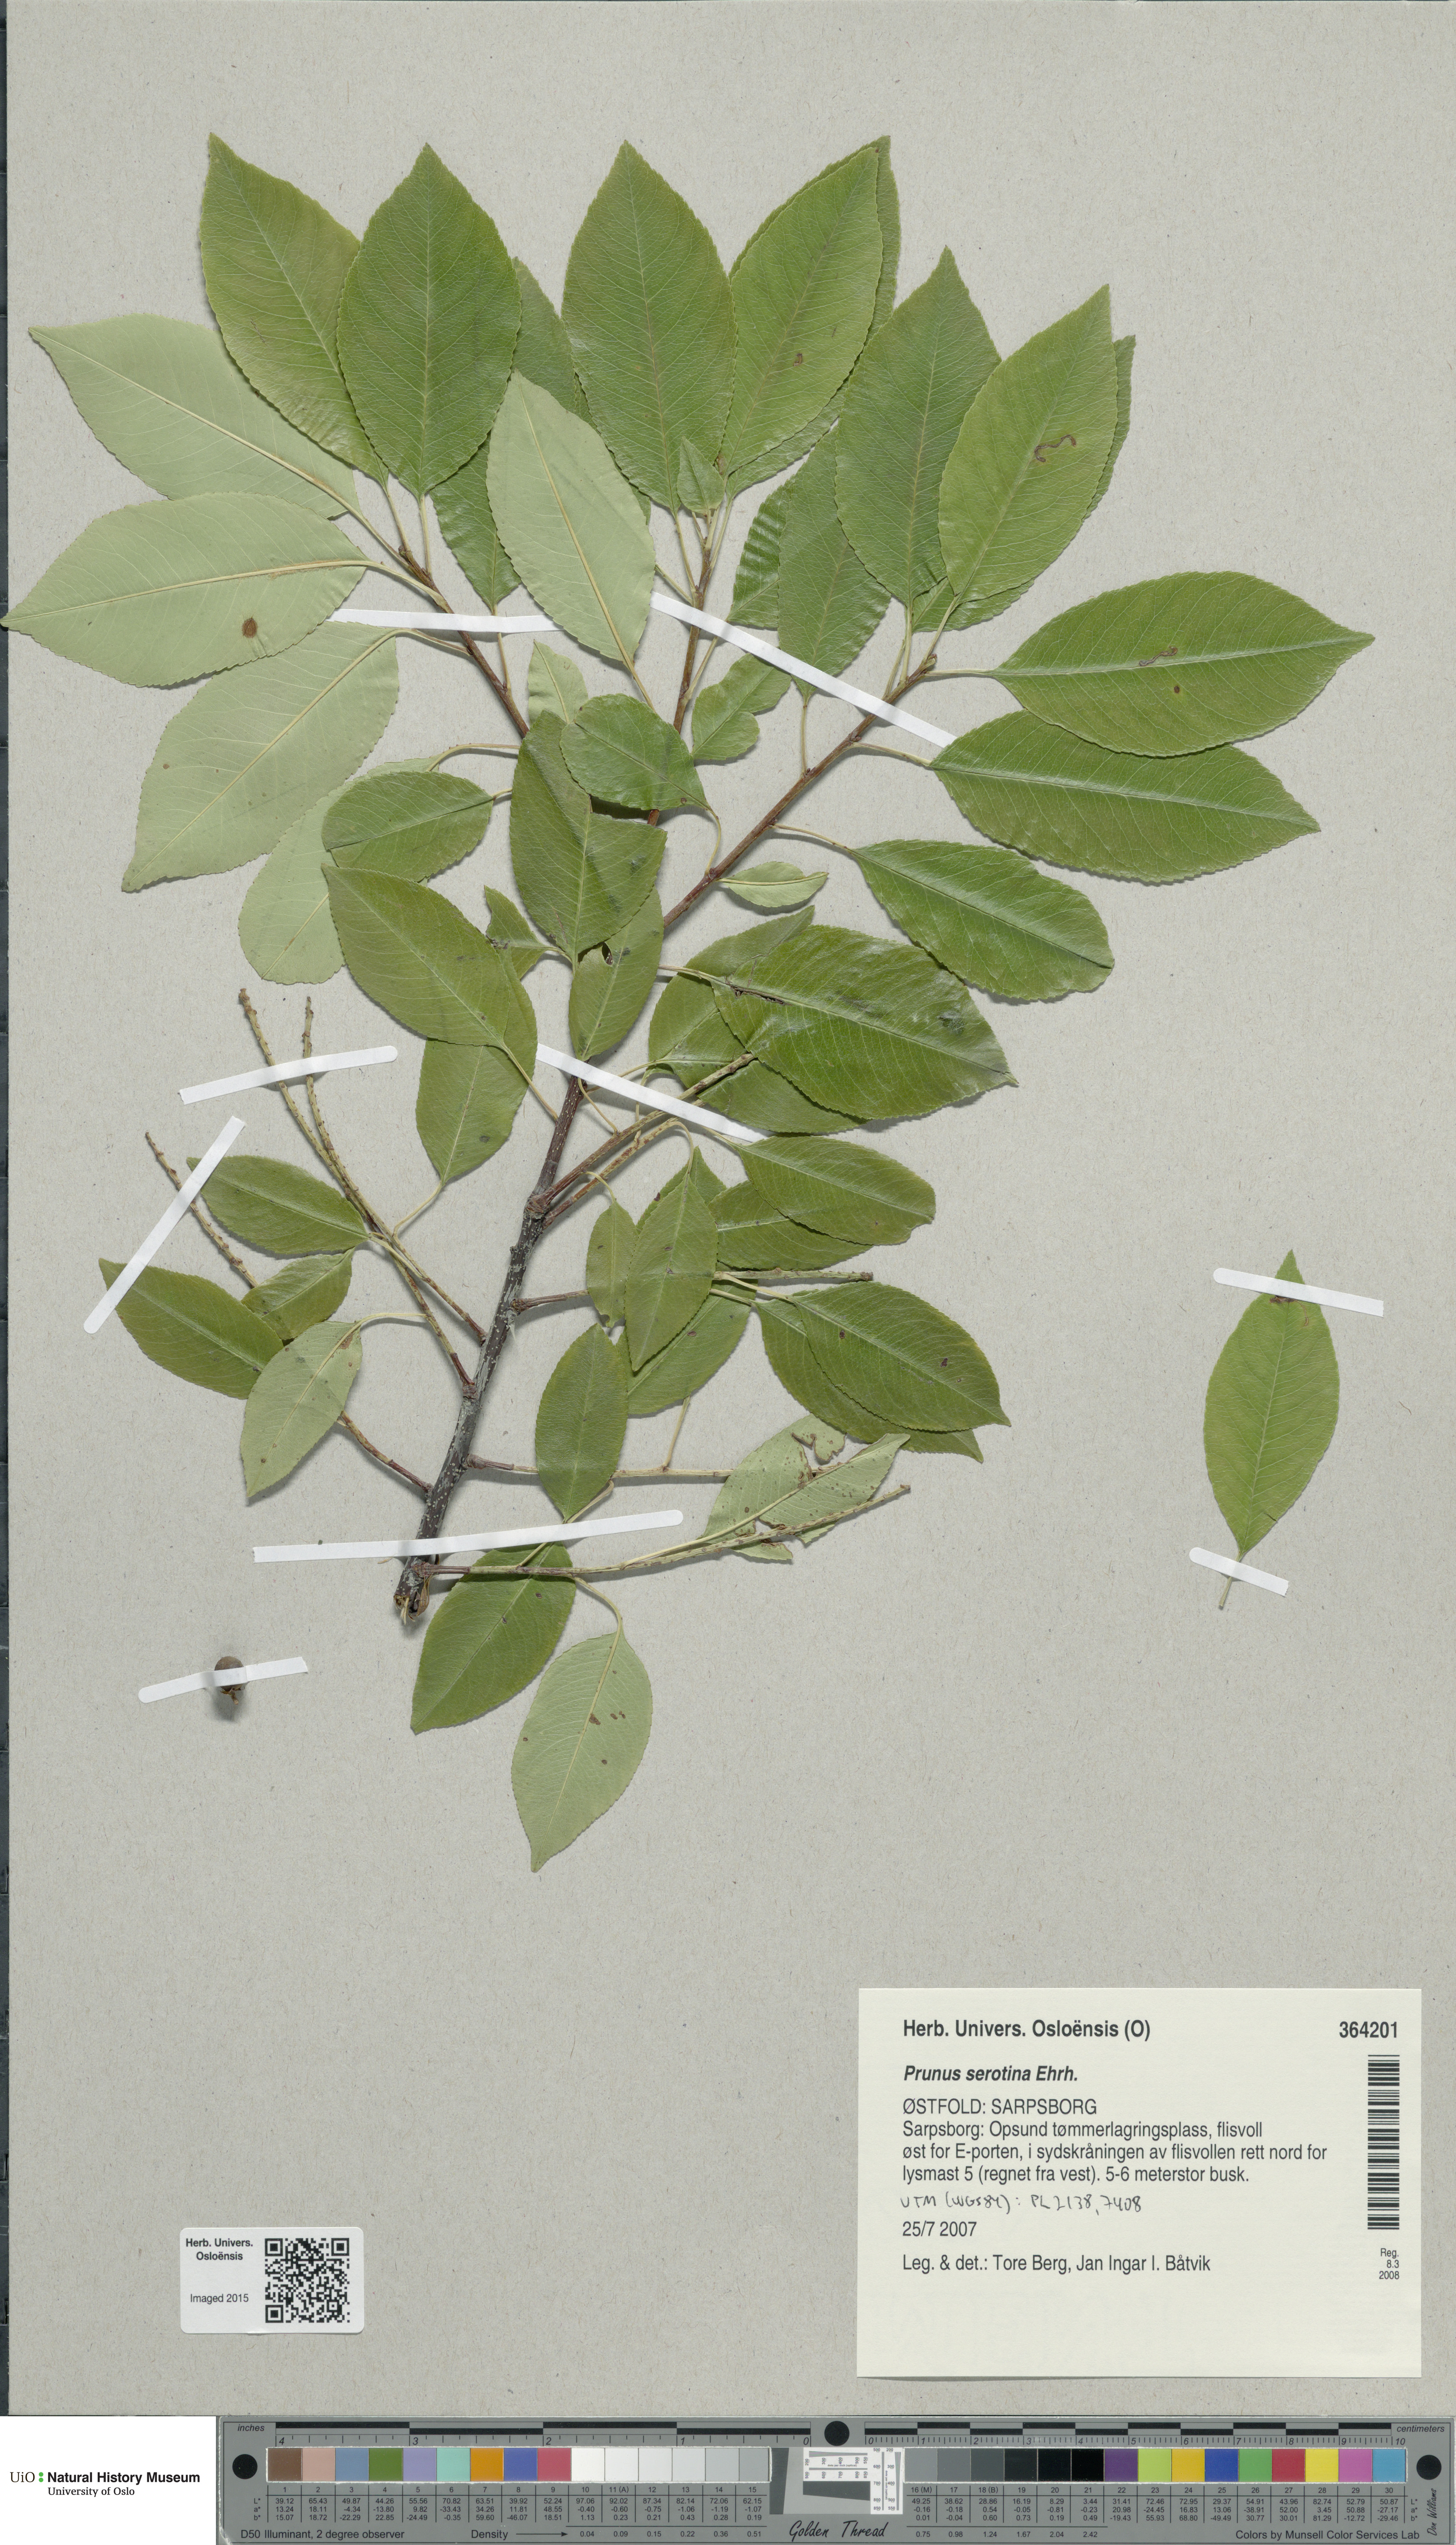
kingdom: Plantae
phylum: Tracheophyta
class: Magnoliopsida
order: Rosales
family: Rosaceae
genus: Prunus
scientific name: Prunus serotina
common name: Black cherry
